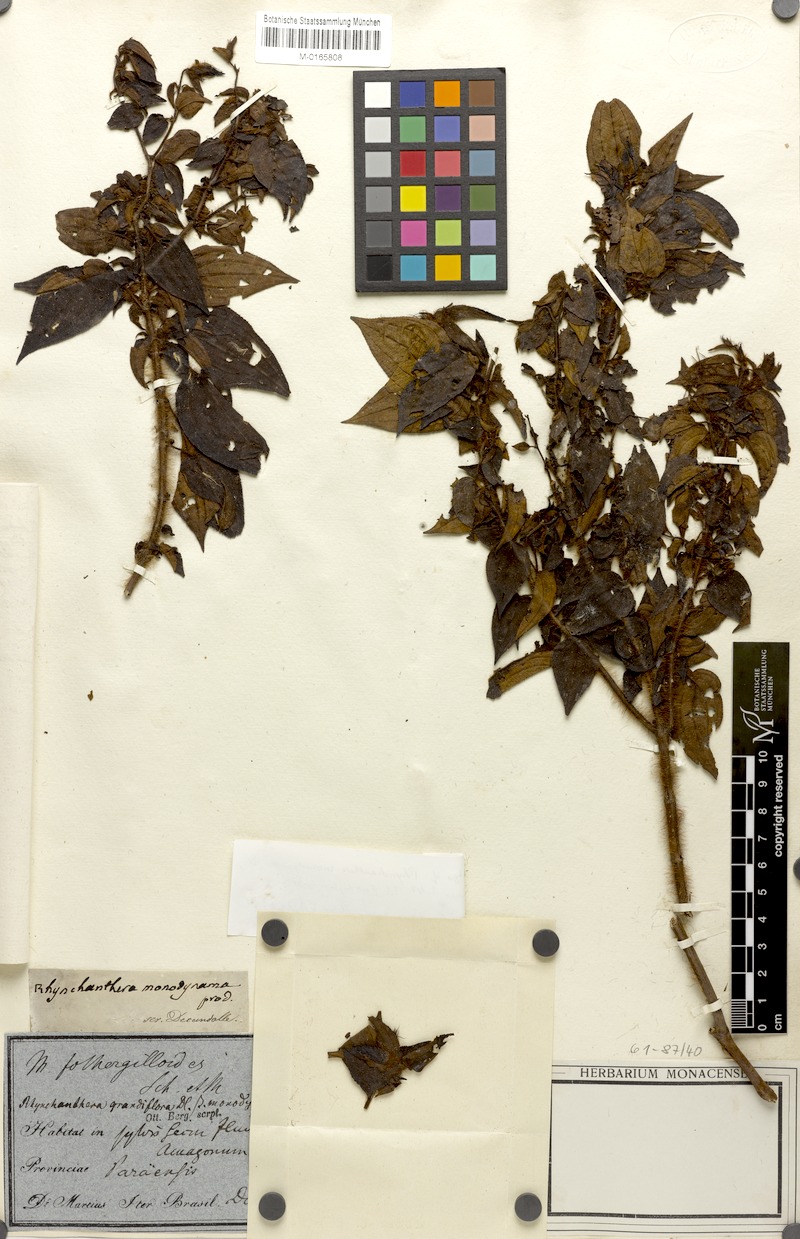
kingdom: Plantae
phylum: Tracheophyta
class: Magnoliopsida
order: Myrtales
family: Melastomataceae
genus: Rhynchanthera
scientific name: Rhynchanthera grandiflora
